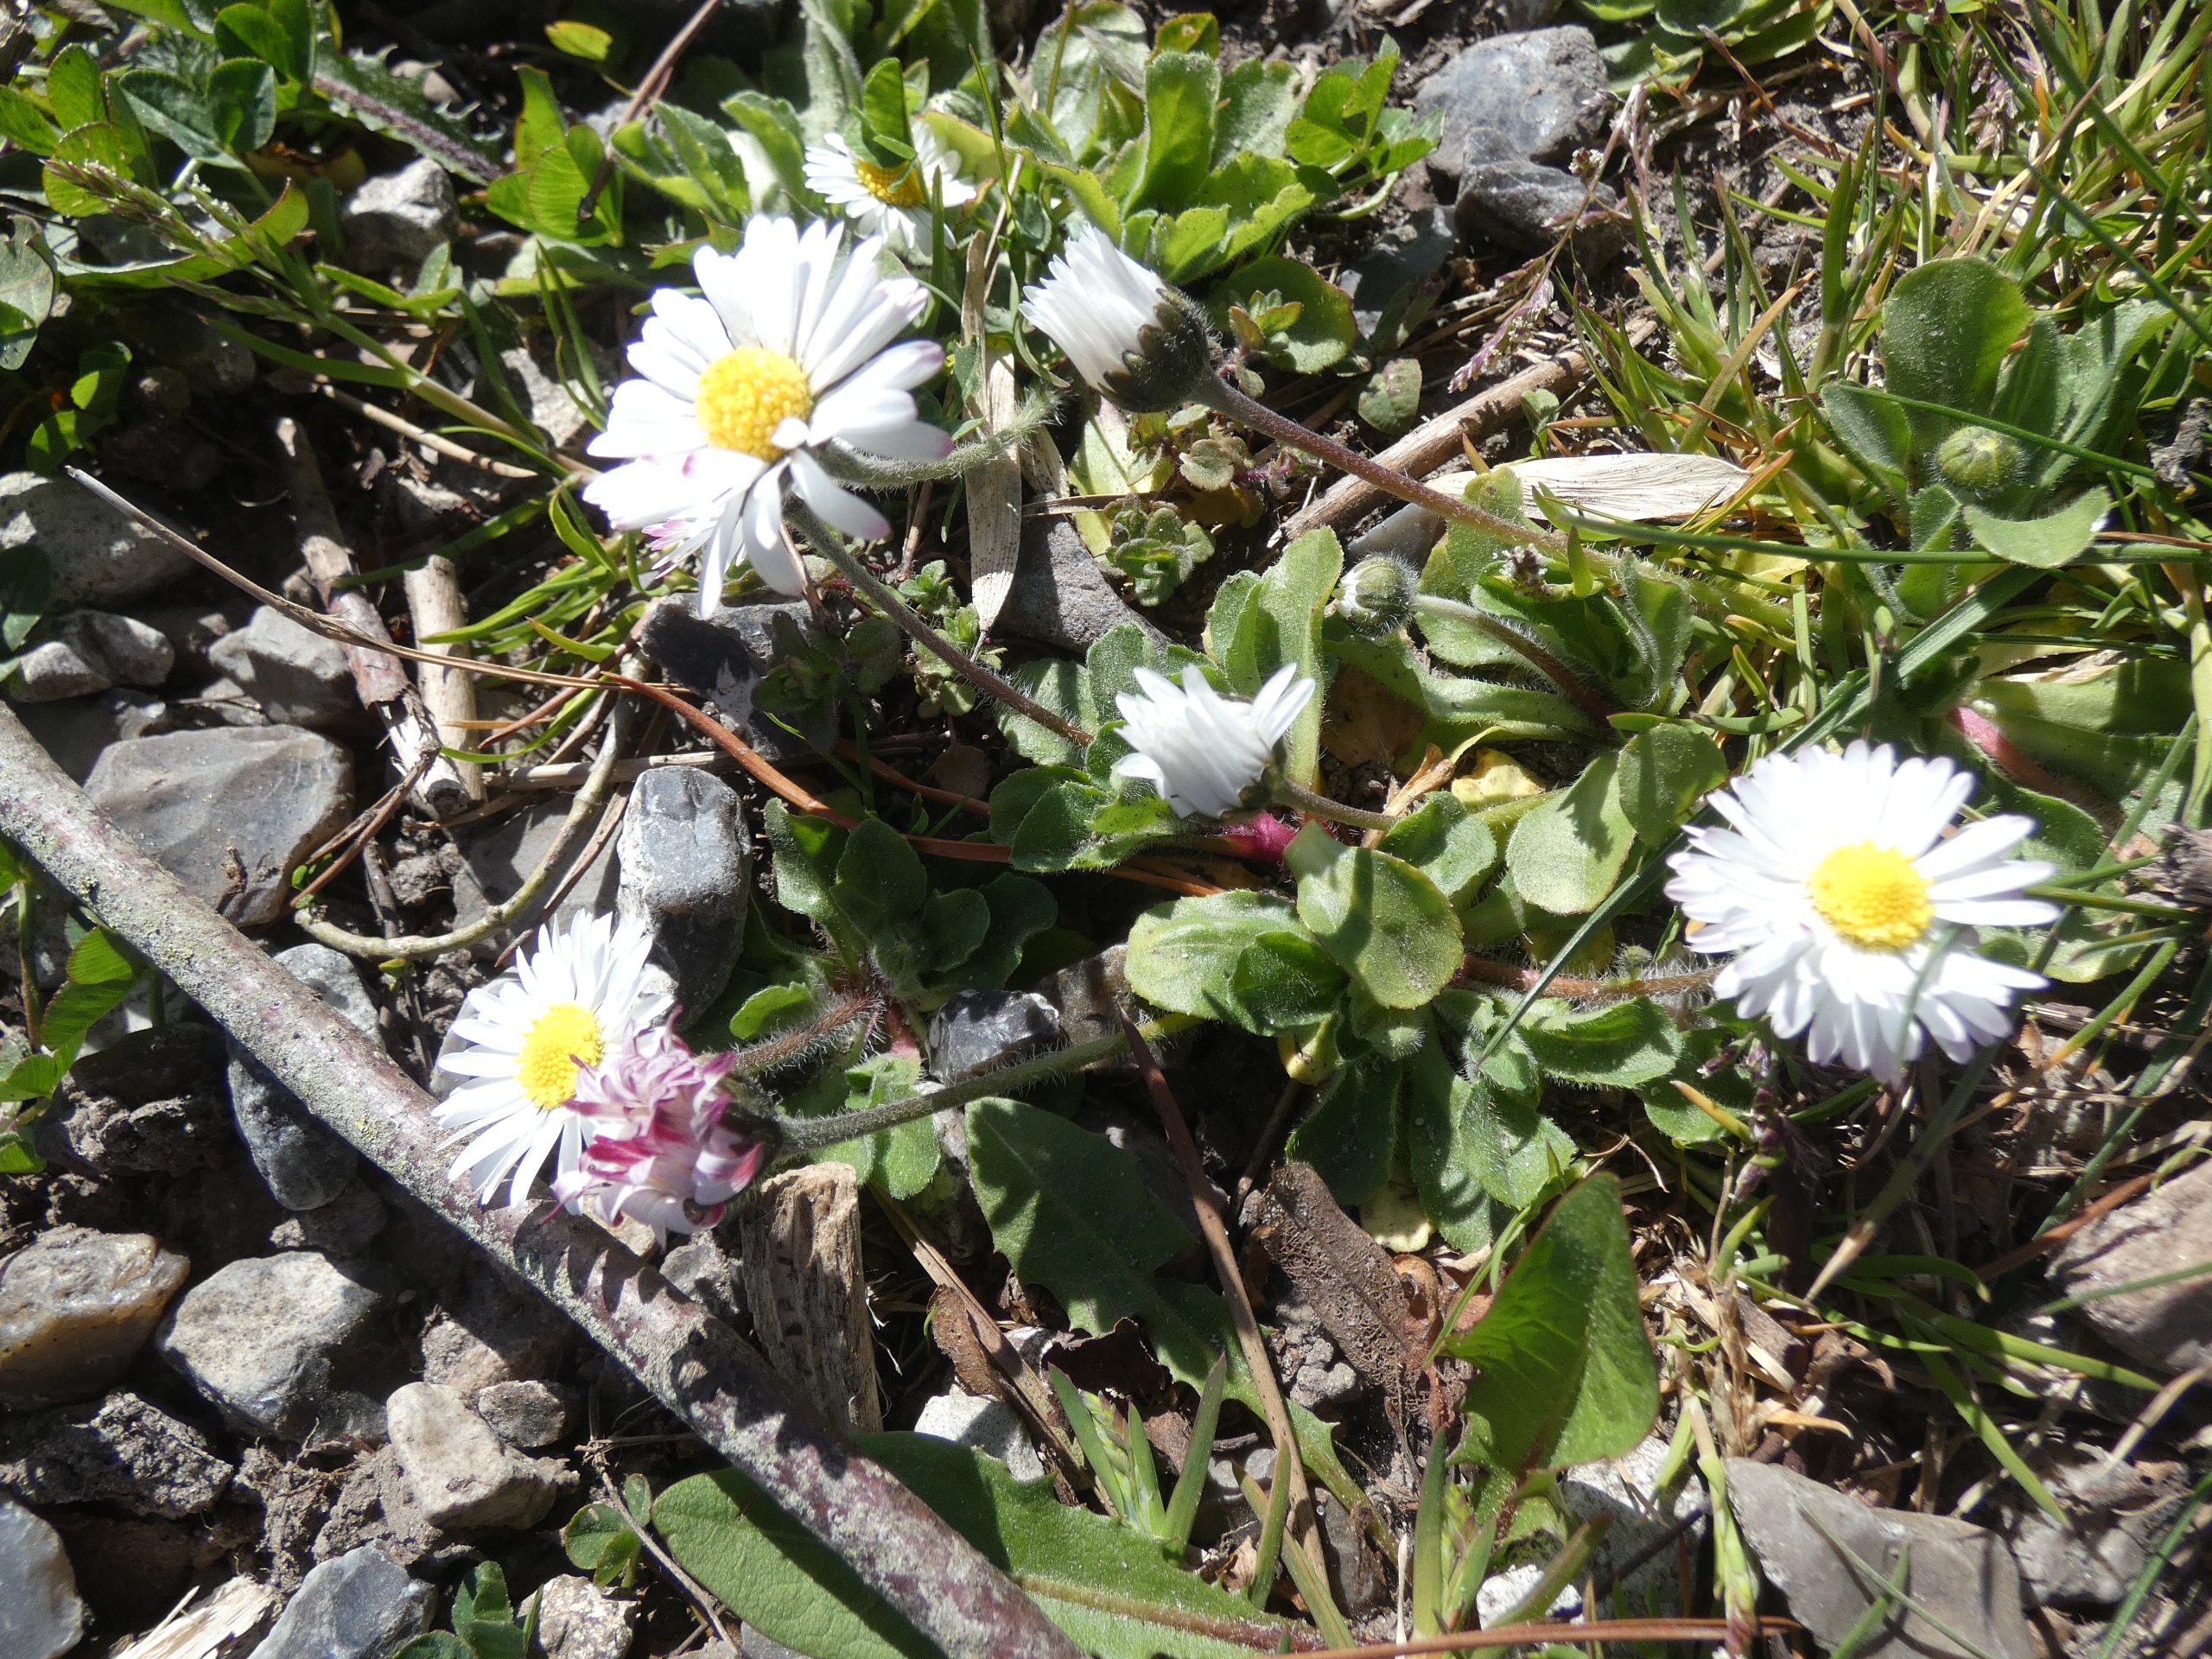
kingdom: Plantae
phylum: Tracheophyta
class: Magnoliopsida
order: Asterales
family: Asteraceae
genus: Bellis
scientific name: Bellis perennis
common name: Tusindfryd
